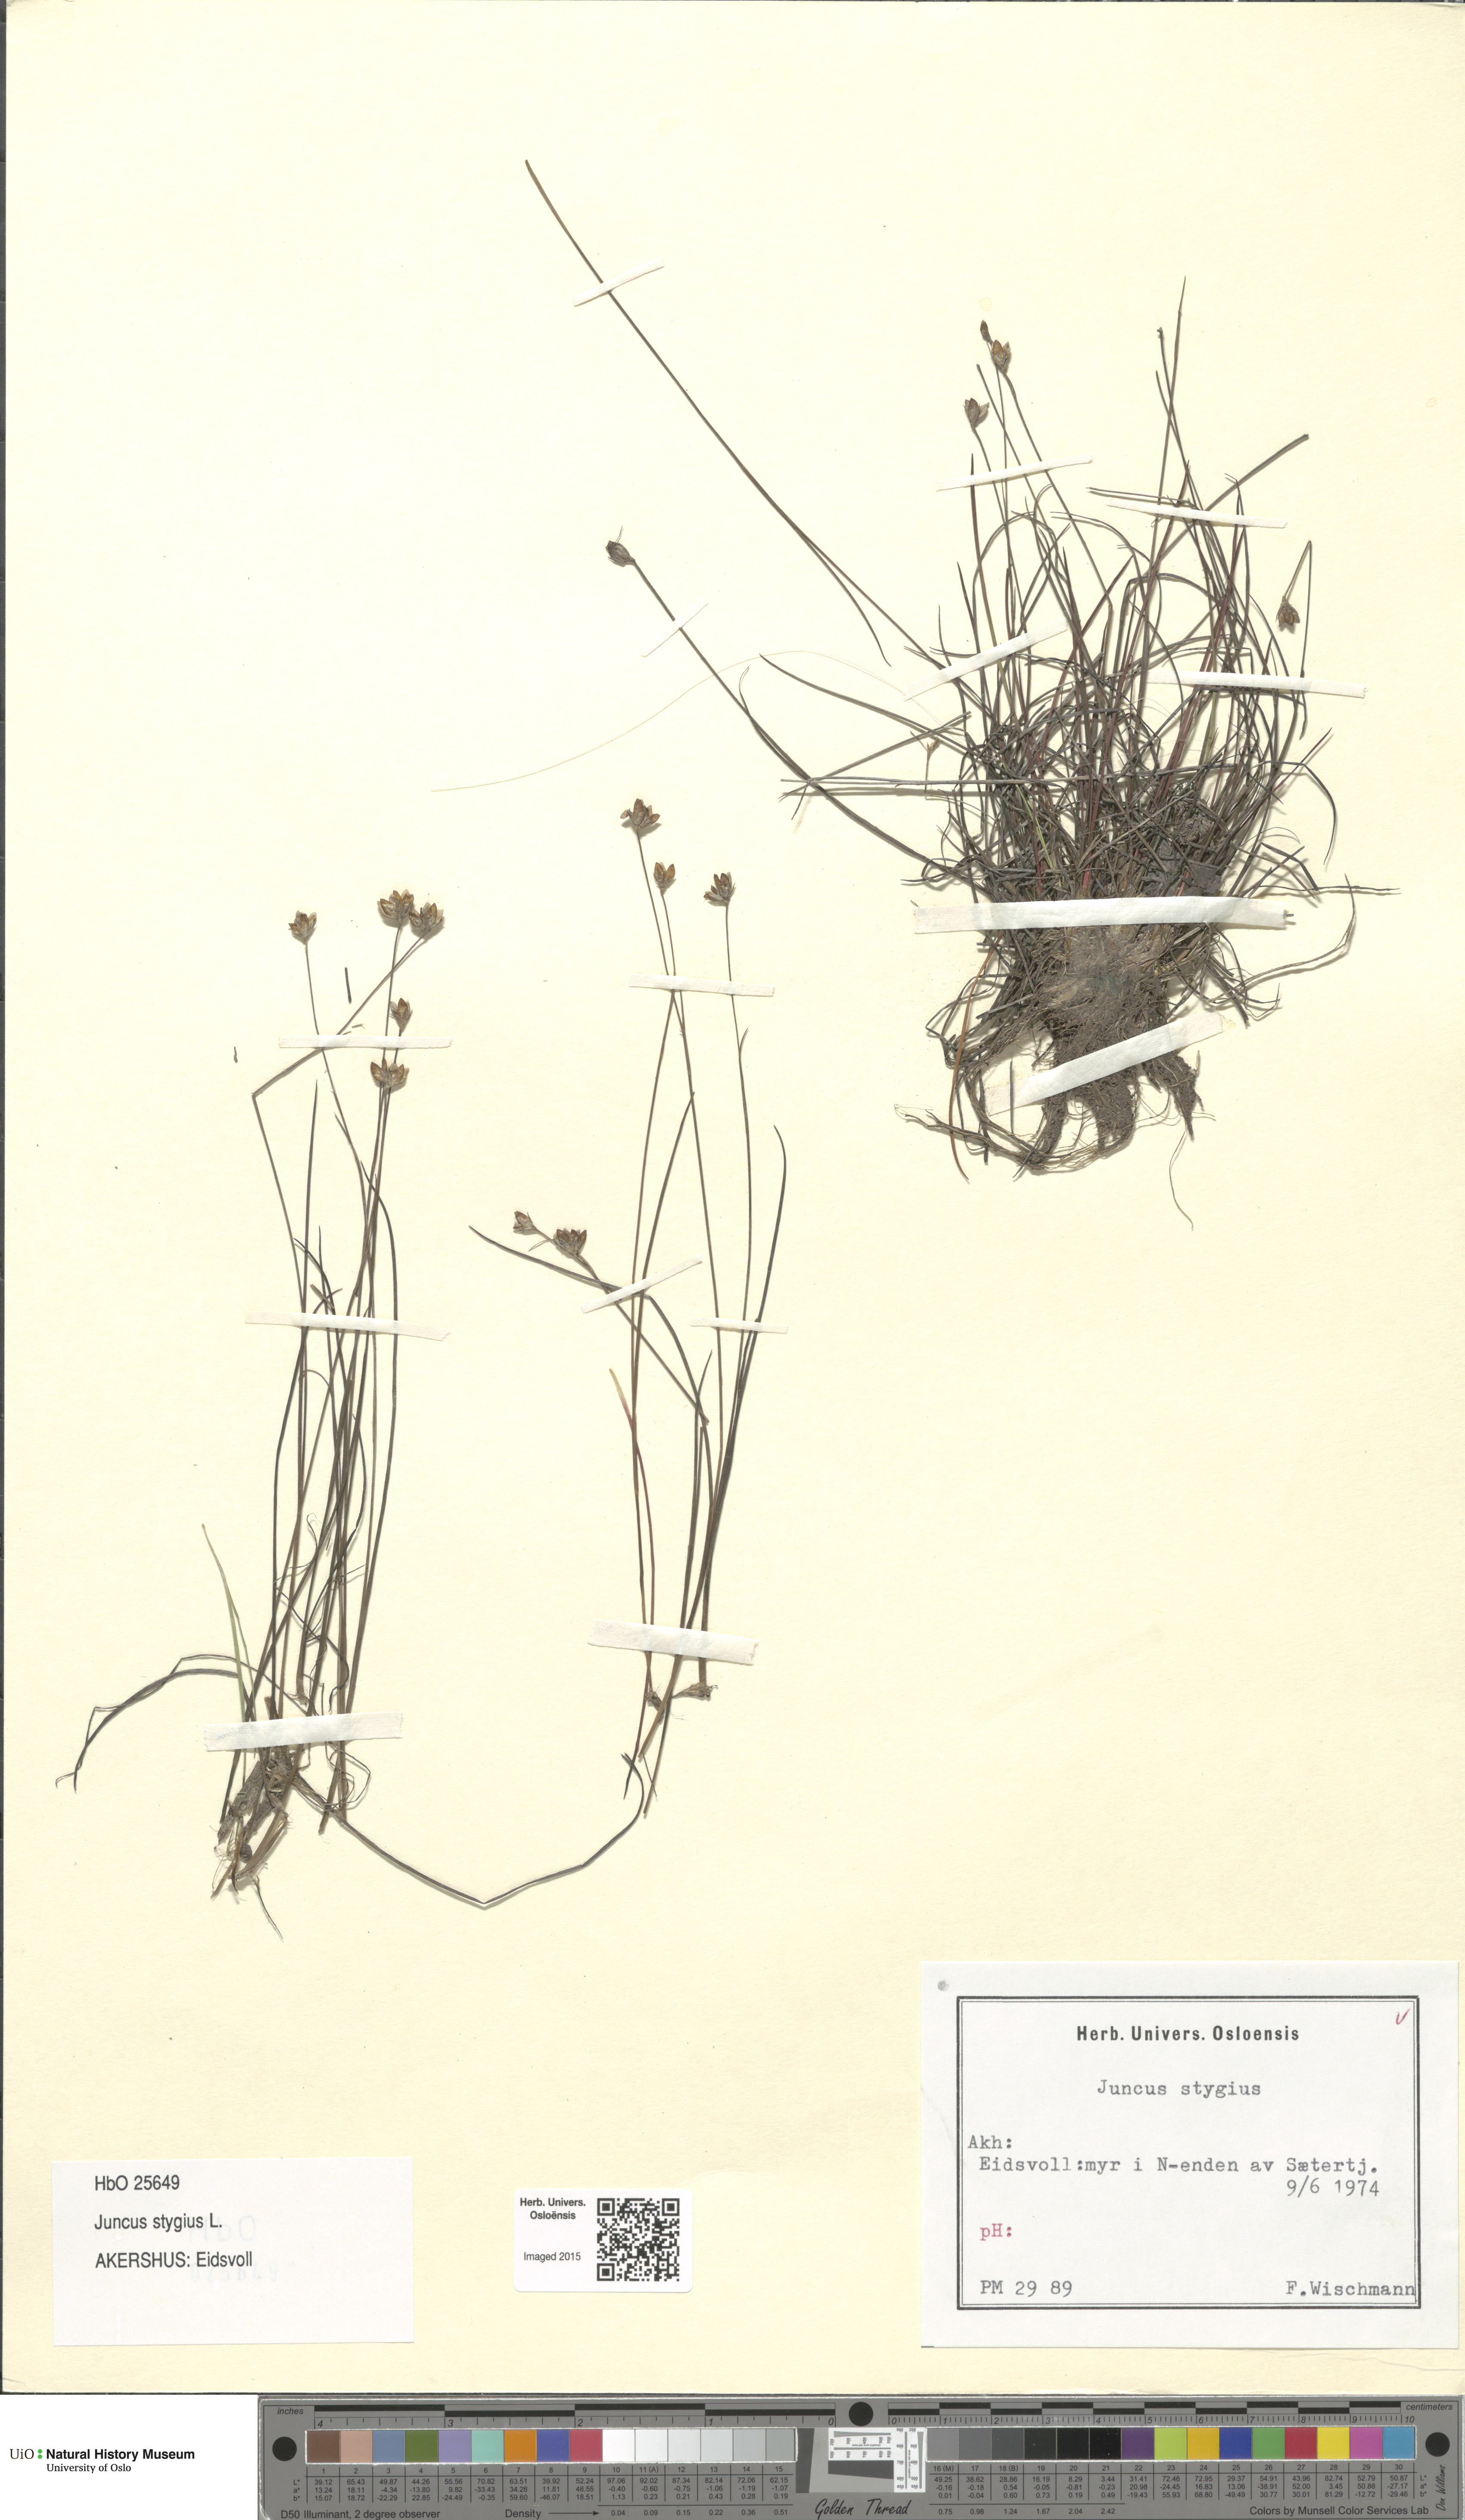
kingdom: Plantae
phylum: Tracheophyta
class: Liliopsida
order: Poales
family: Juncaceae
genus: Juncus
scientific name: Juncus stygius
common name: Bog rush
